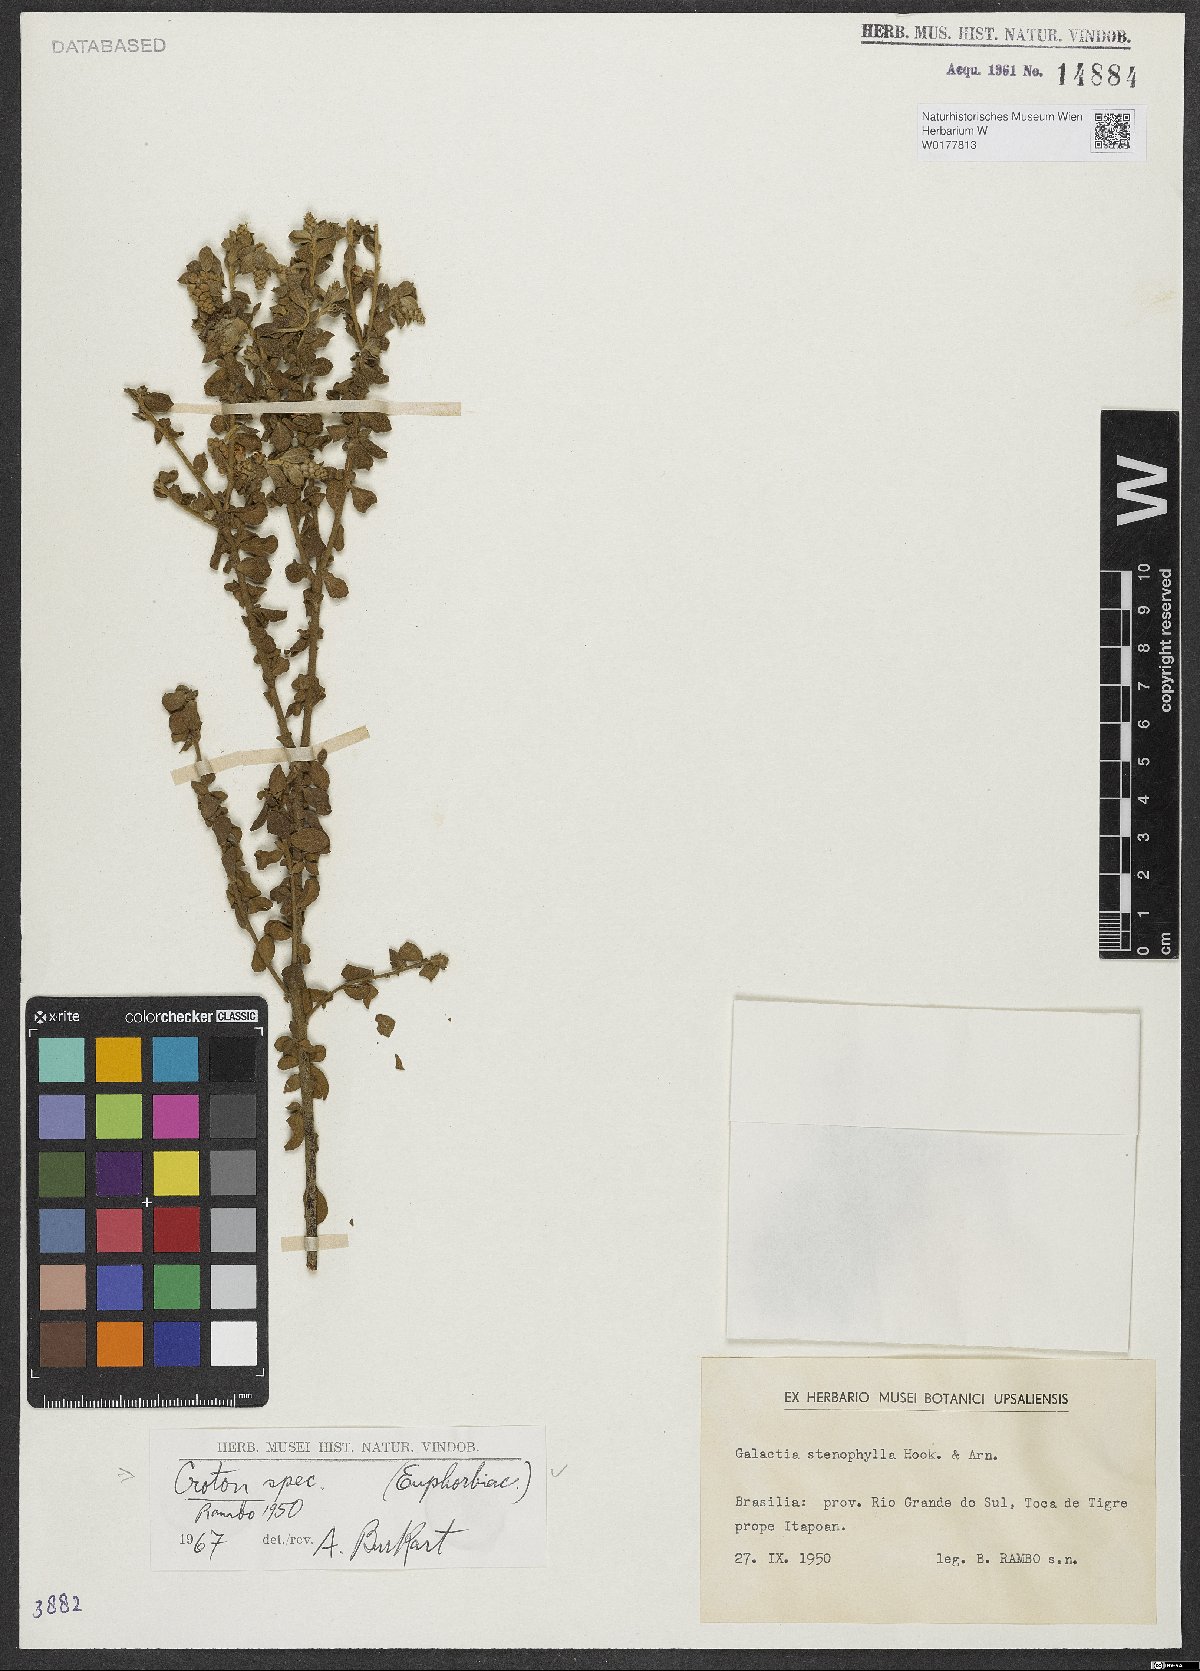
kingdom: Plantae
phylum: Tracheophyta
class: Magnoliopsida
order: Malpighiales
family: Euphorbiaceae
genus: Croton
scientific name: Croton
